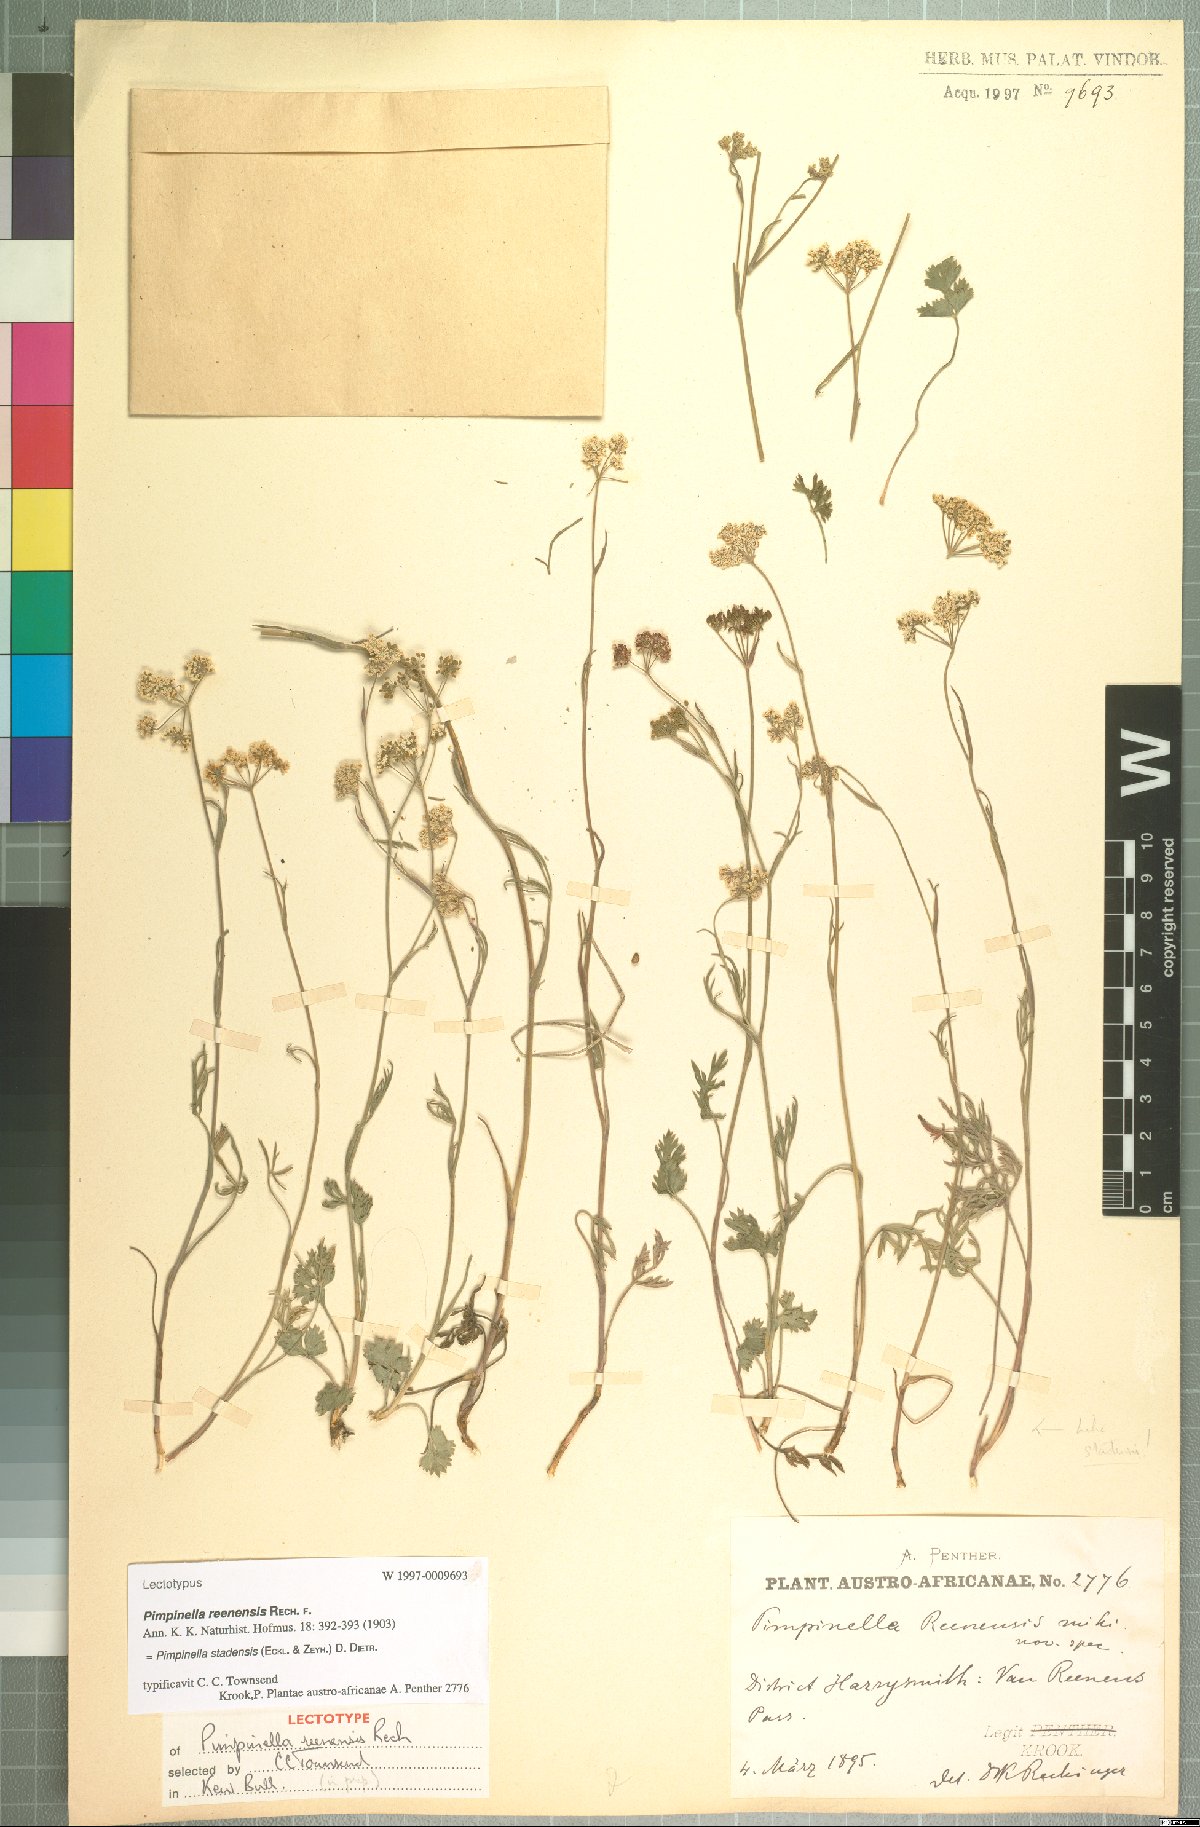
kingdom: Plantae
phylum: Tracheophyta
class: Magnoliopsida
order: Apiales
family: Apiaceae
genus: Pimpinella
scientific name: Pimpinella caffra
